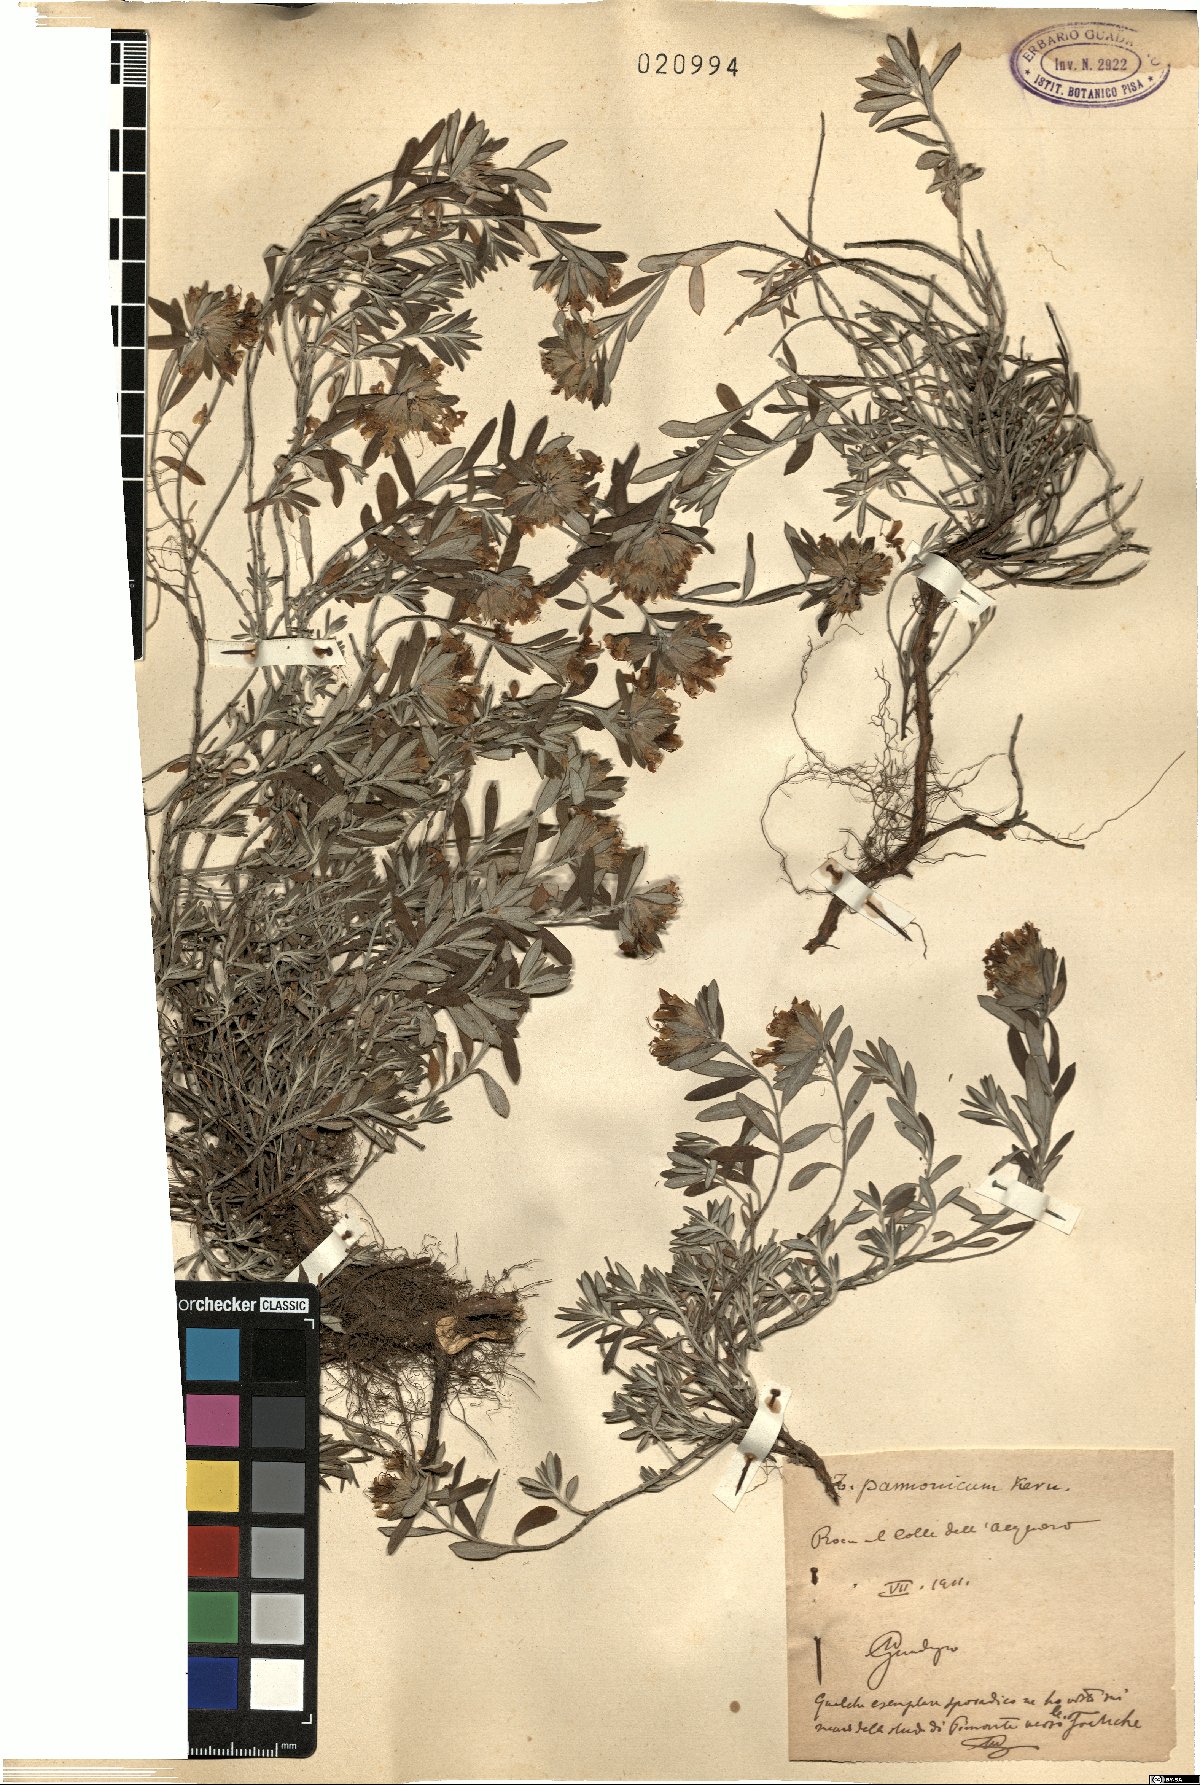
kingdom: Plantae
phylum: Tracheophyta
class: Magnoliopsida
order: Lamiales
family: Lamiaceae
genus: Teucrium
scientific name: Teucrium montanum
